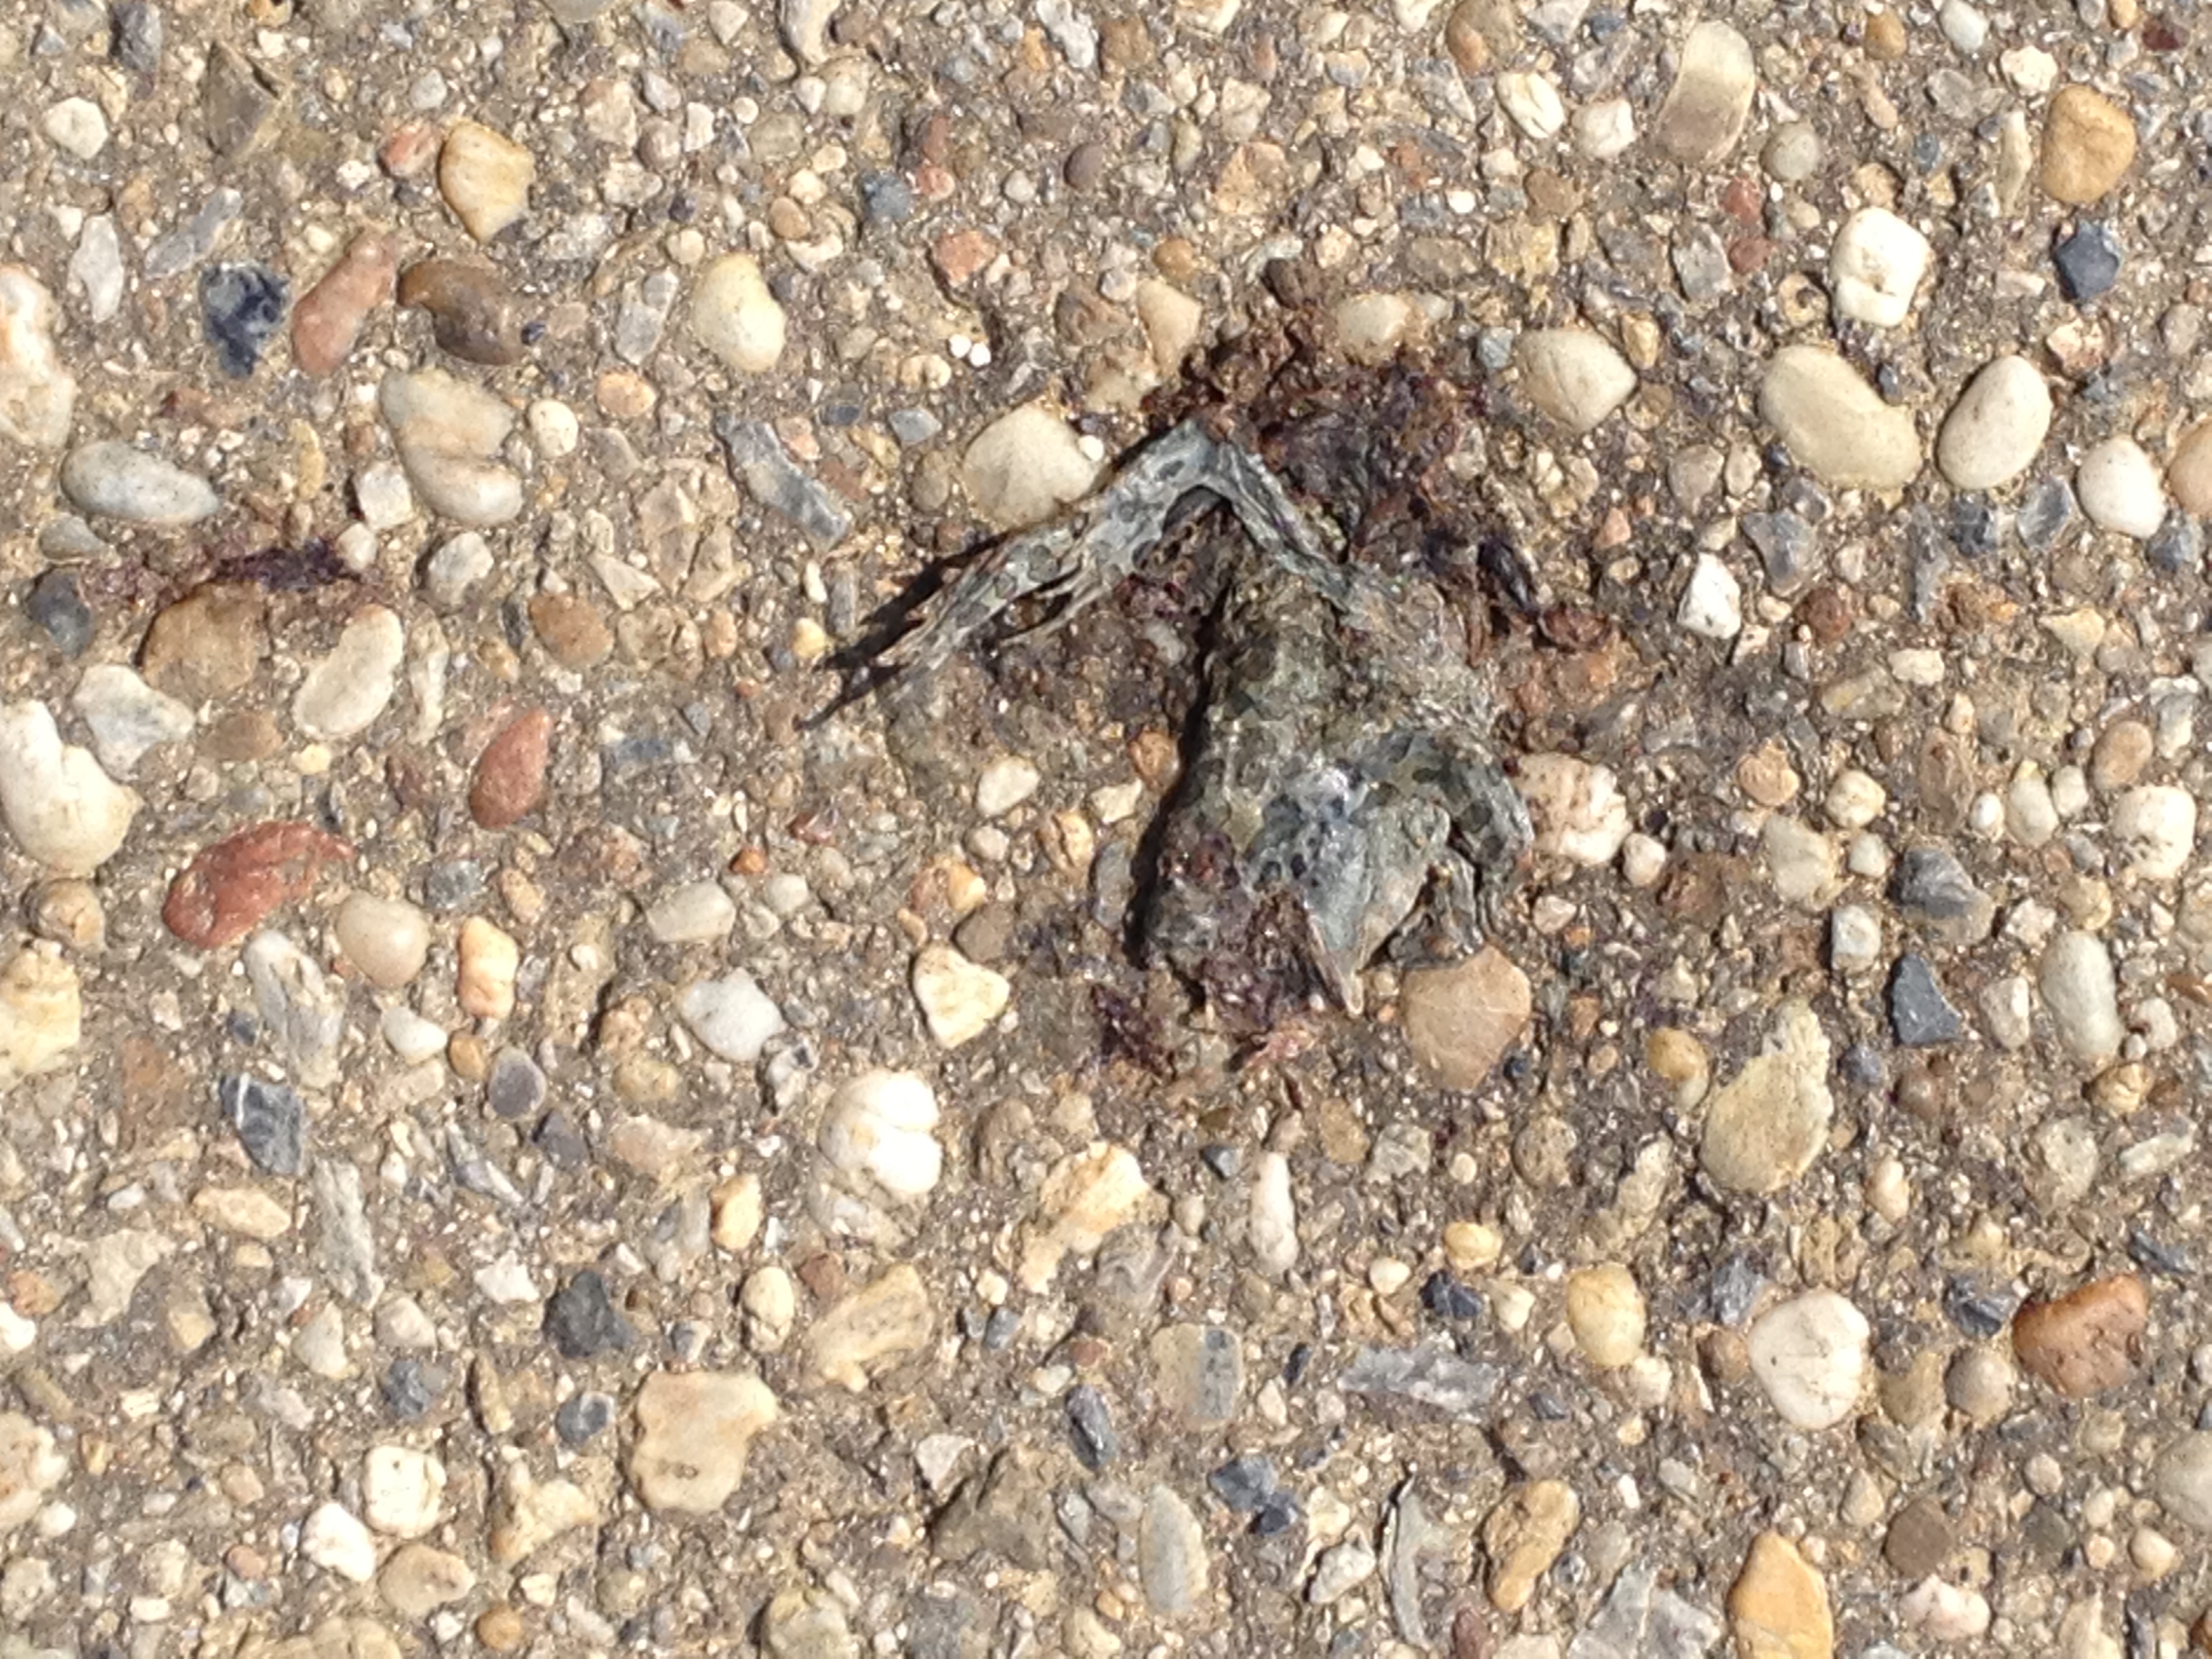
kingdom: Animalia
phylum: Chordata
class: Amphibia
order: Anura
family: Bufonidae
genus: Bufotes
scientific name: Bufotes viridis
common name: European green toad
